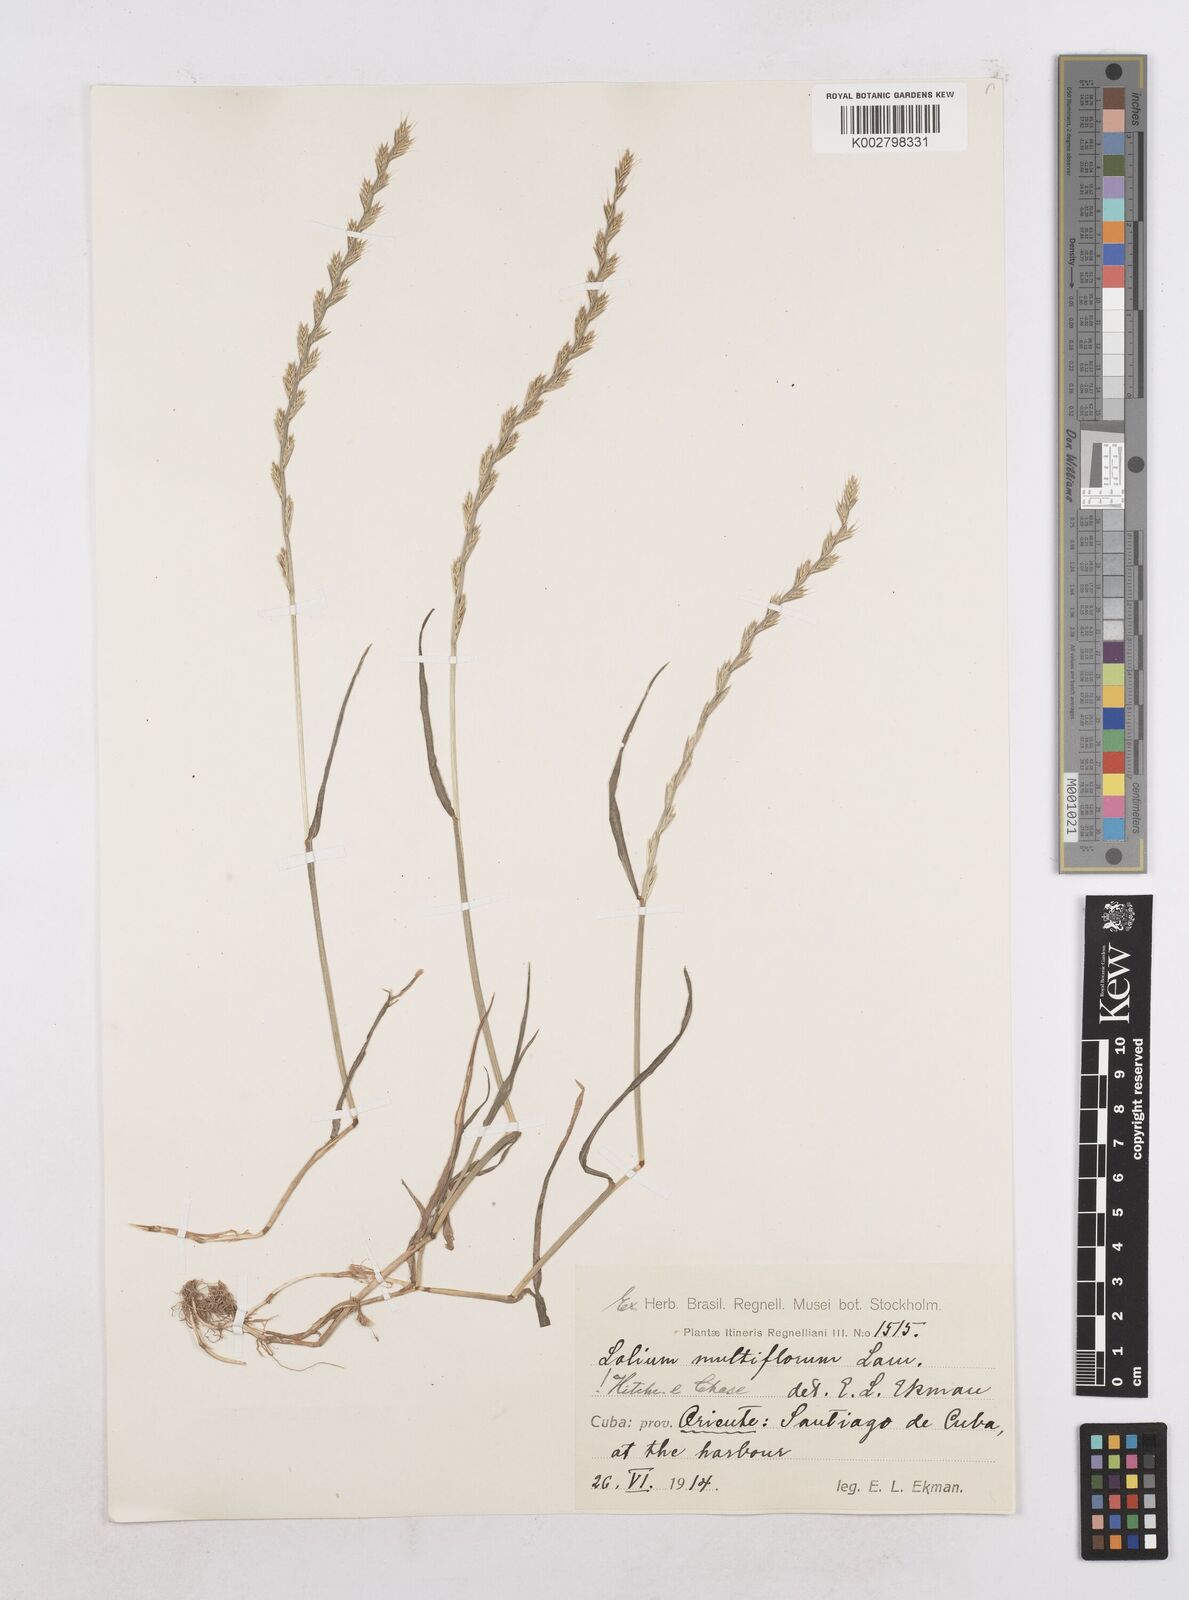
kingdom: Plantae
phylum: Tracheophyta
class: Liliopsida
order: Poales
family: Poaceae
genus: Lolium
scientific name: Lolium multiflorum
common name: Annual ryegrass
